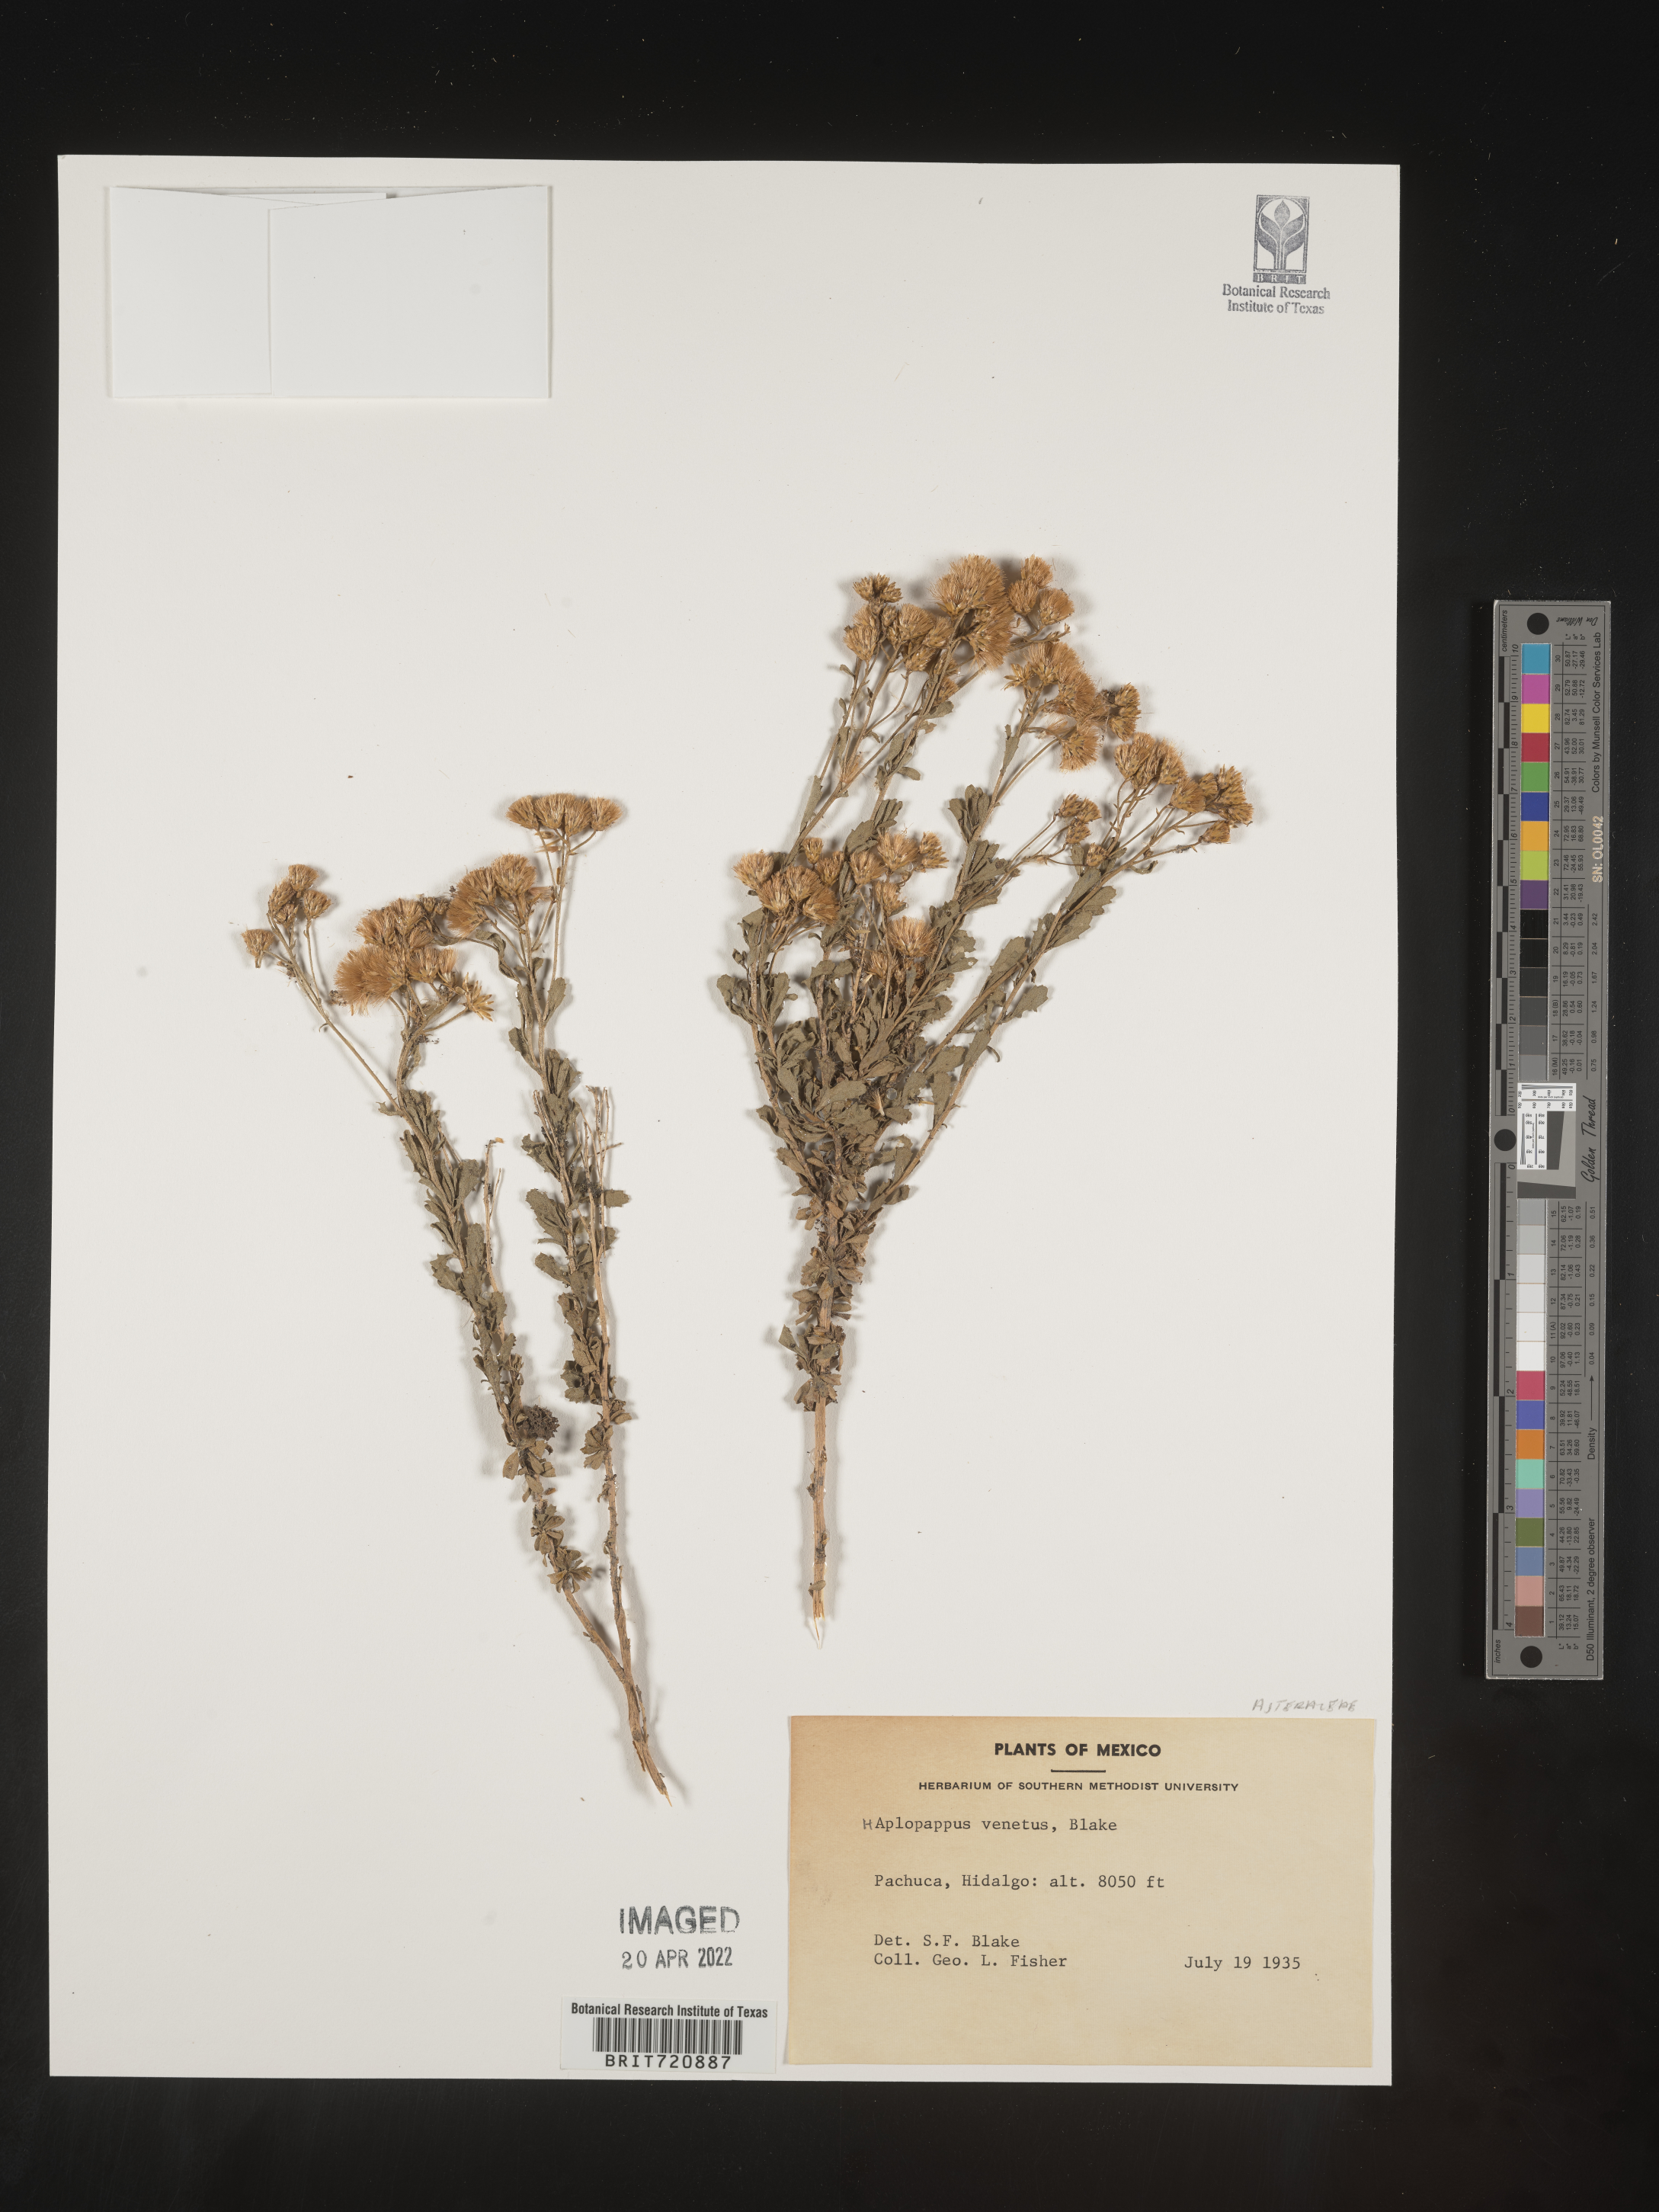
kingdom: Plantae
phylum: Tracheophyta
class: Magnoliopsida
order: Asterales
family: Asteraceae
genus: Haplopappus
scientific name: Haplopappus
